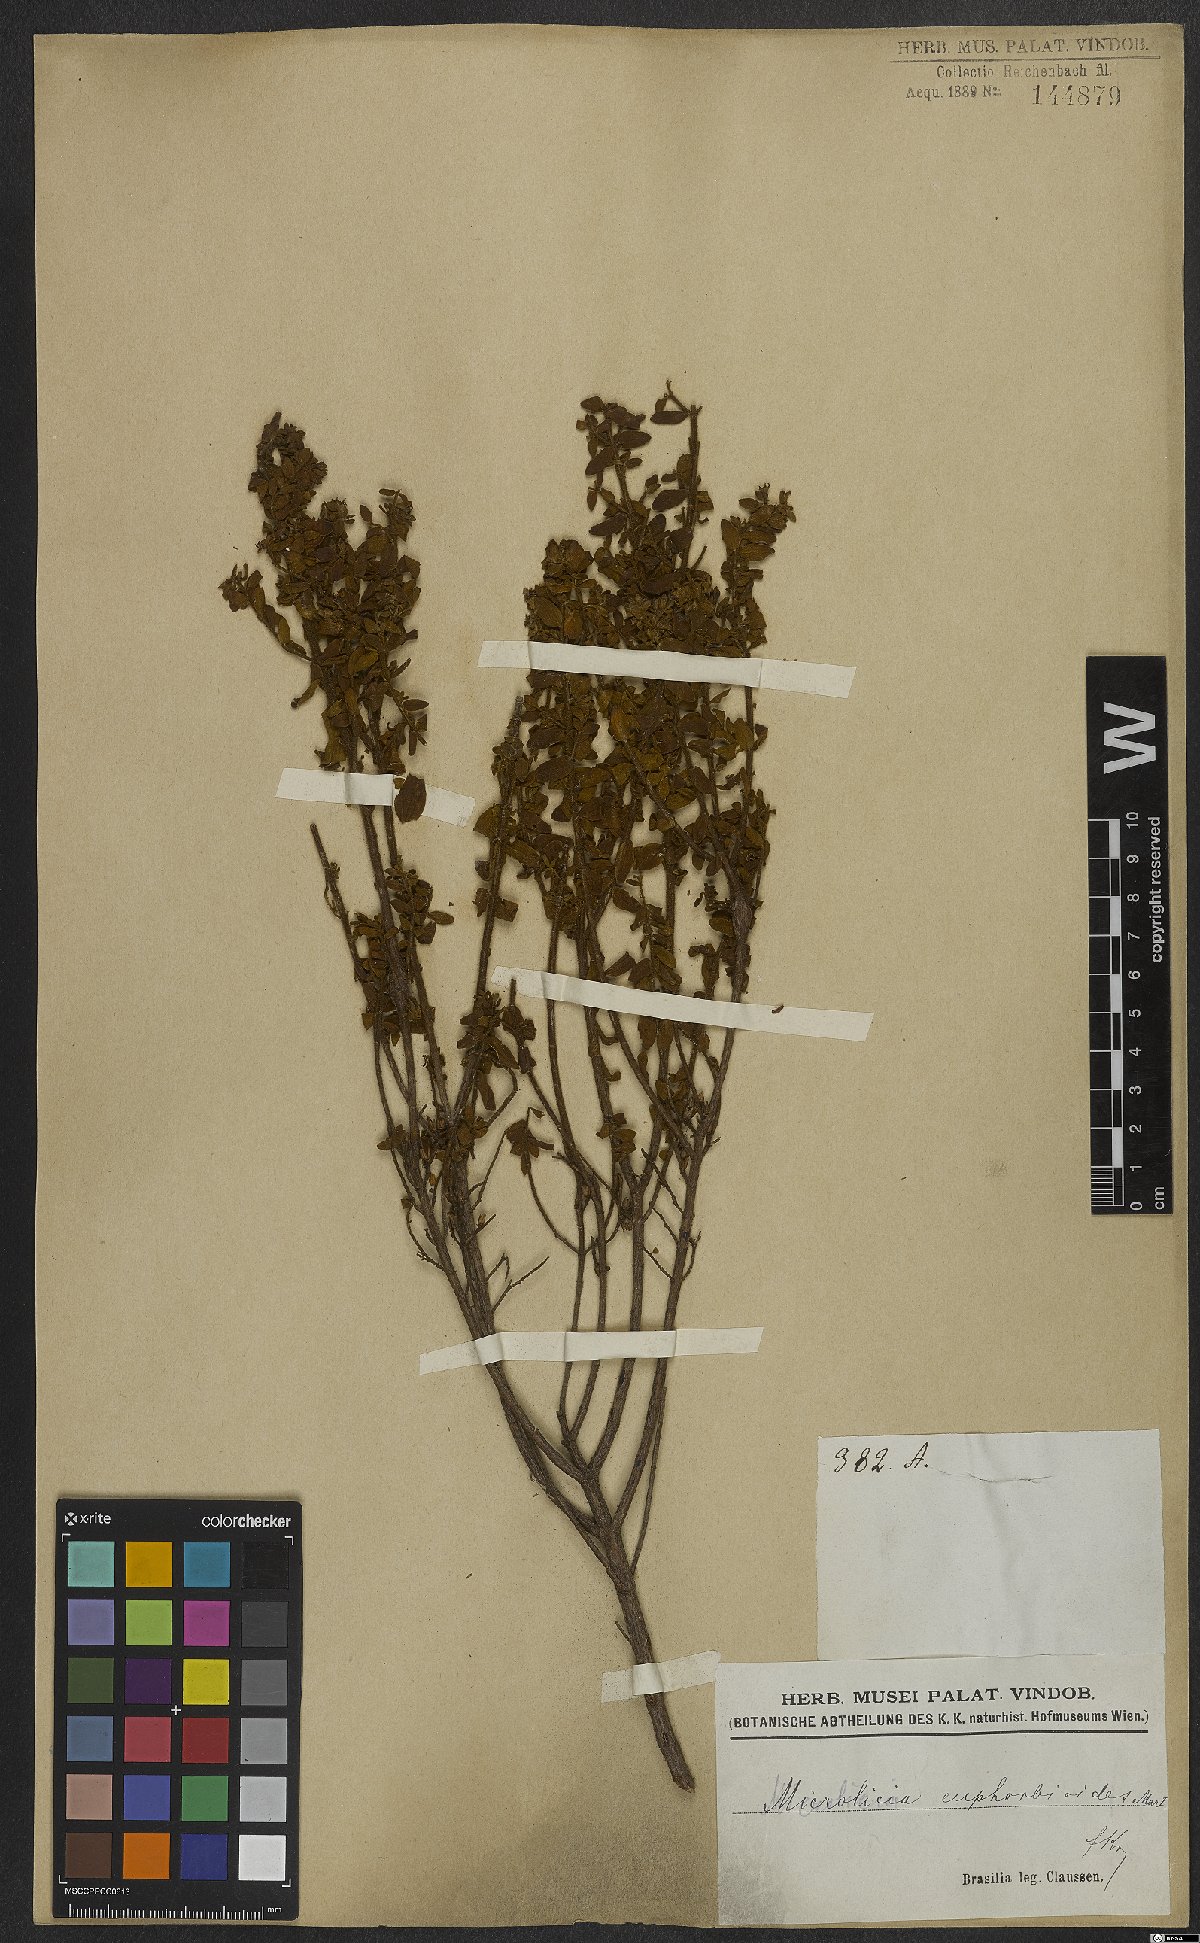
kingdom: Plantae
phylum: Tracheophyta
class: Magnoliopsida
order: Myrtales
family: Melastomataceae
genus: Microlicia
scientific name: Microlicia euphorbioides
